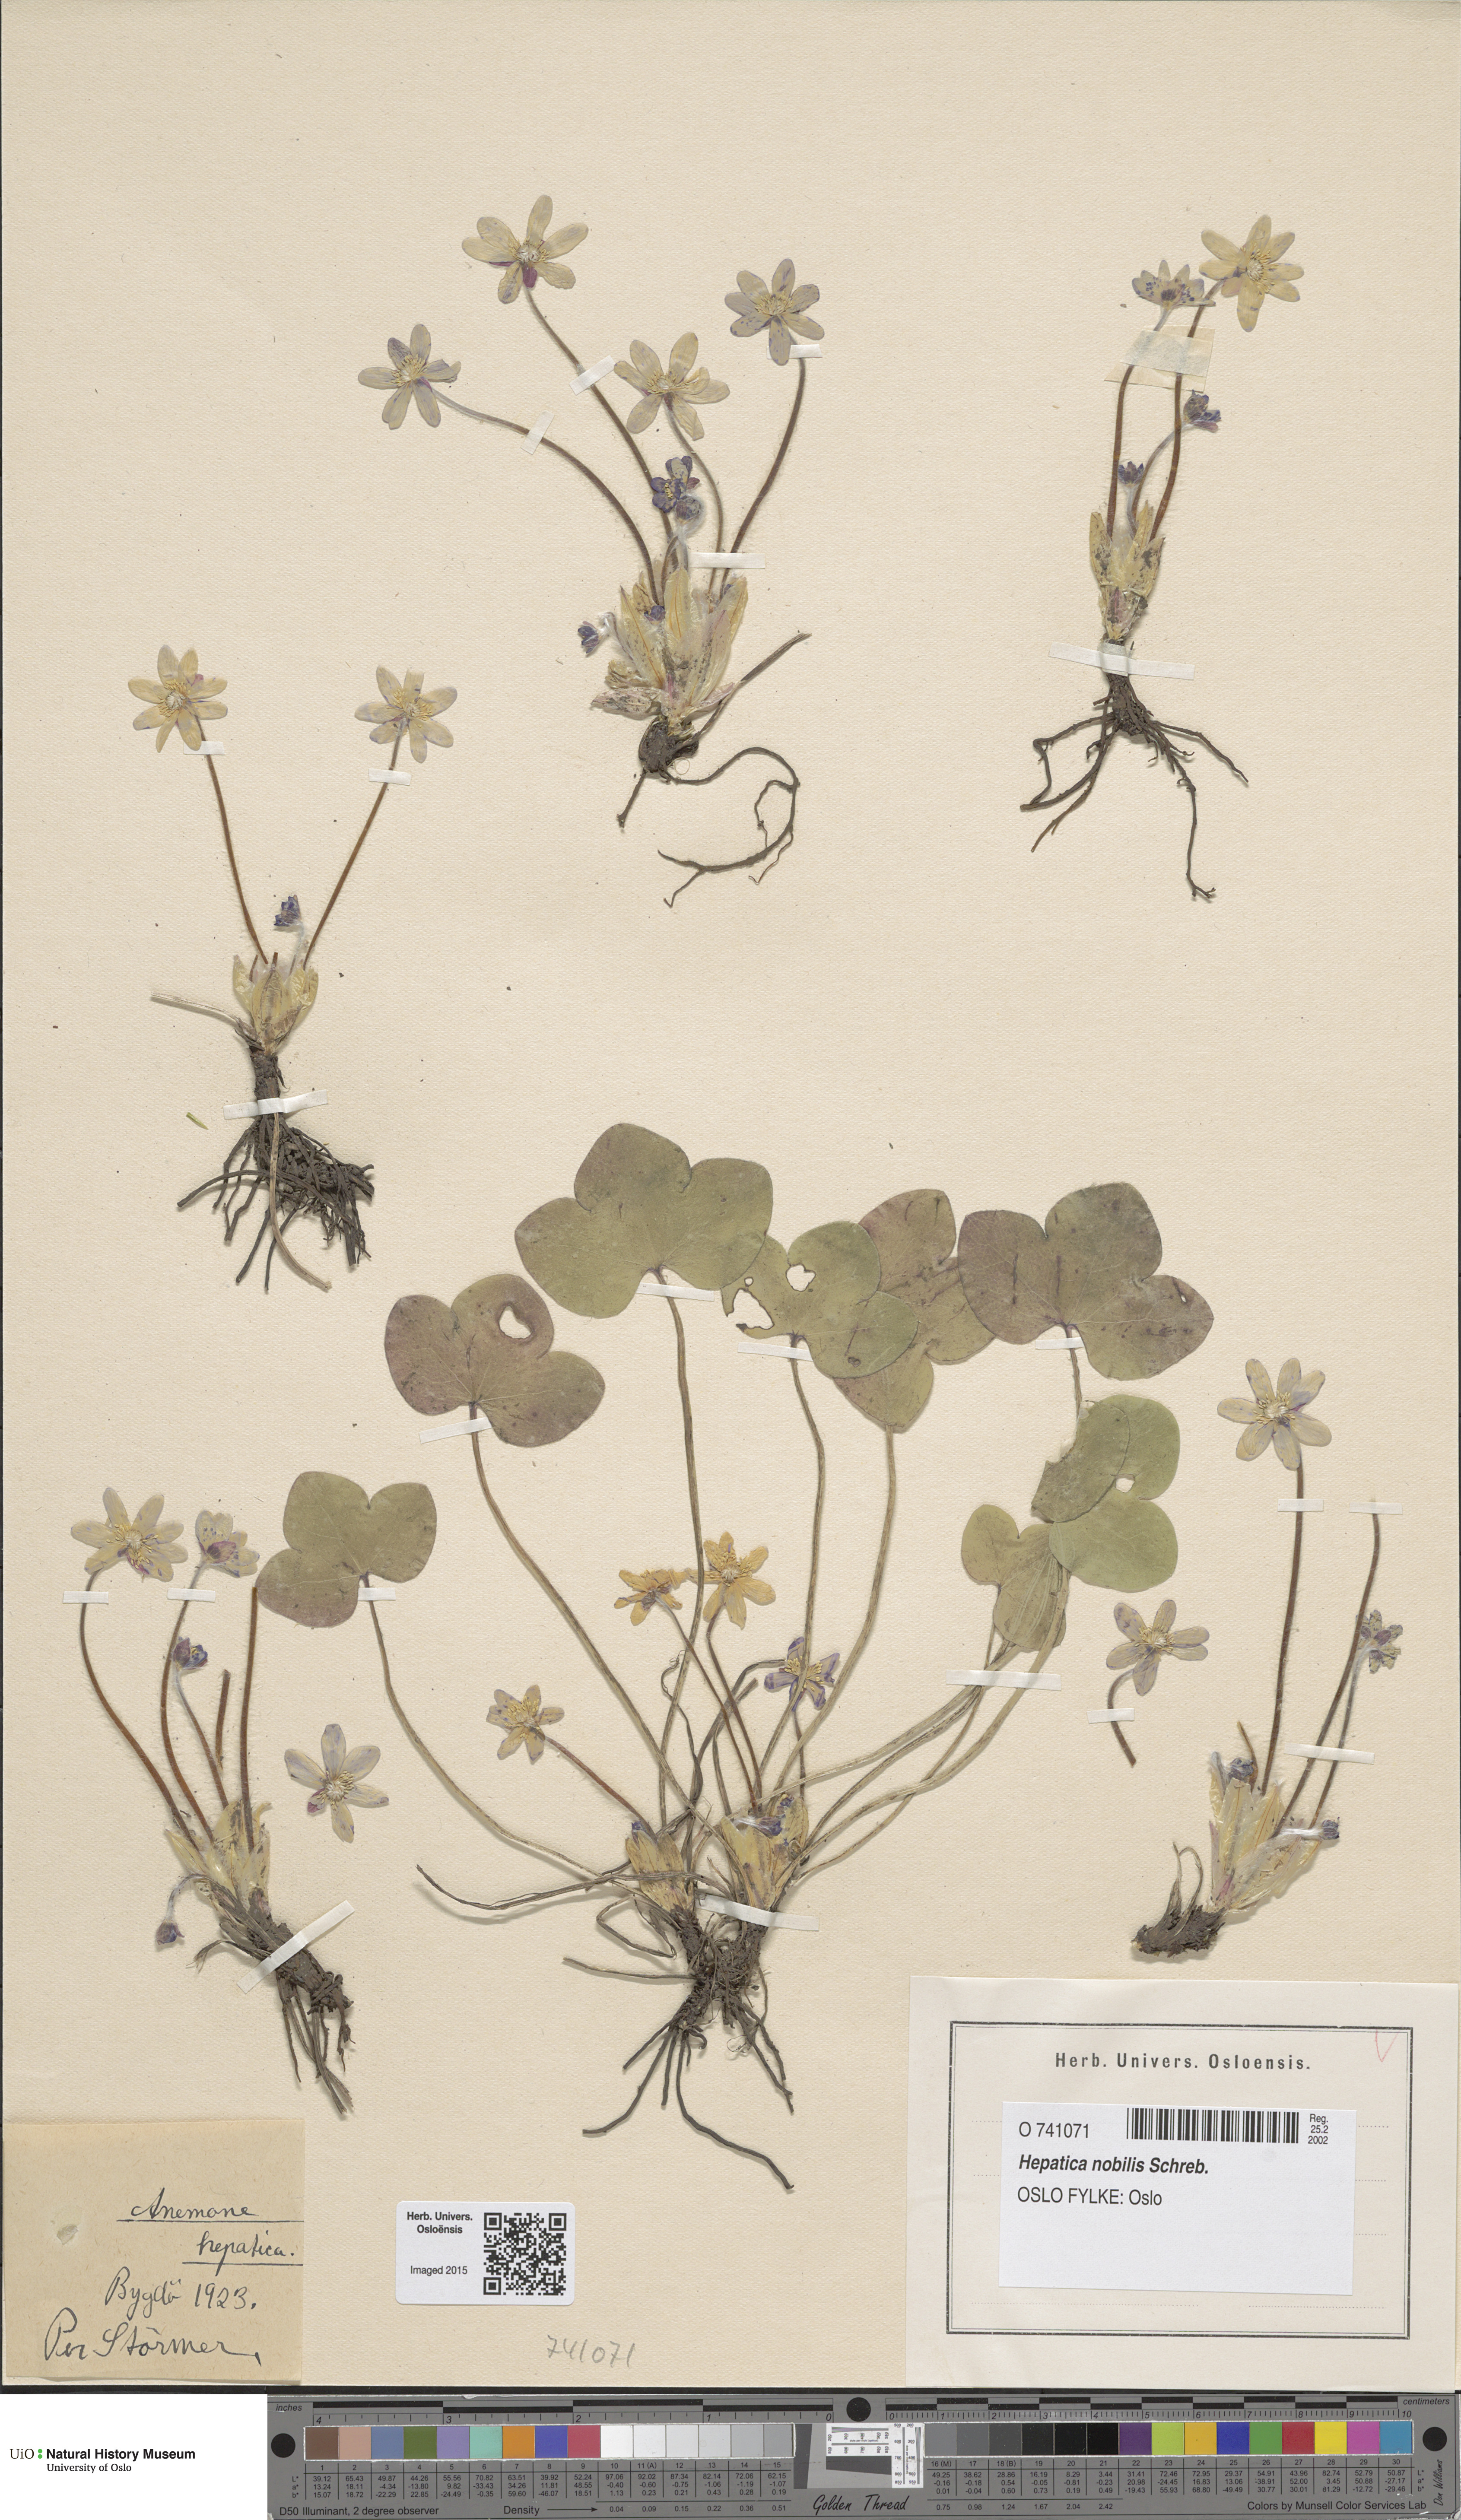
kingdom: Plantae
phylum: Tracheophyta
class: Magnoliopsida
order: Ranunculales
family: Ranunculaceae
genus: Hepatica
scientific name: Hepatica nobilis
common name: Liverleaf
